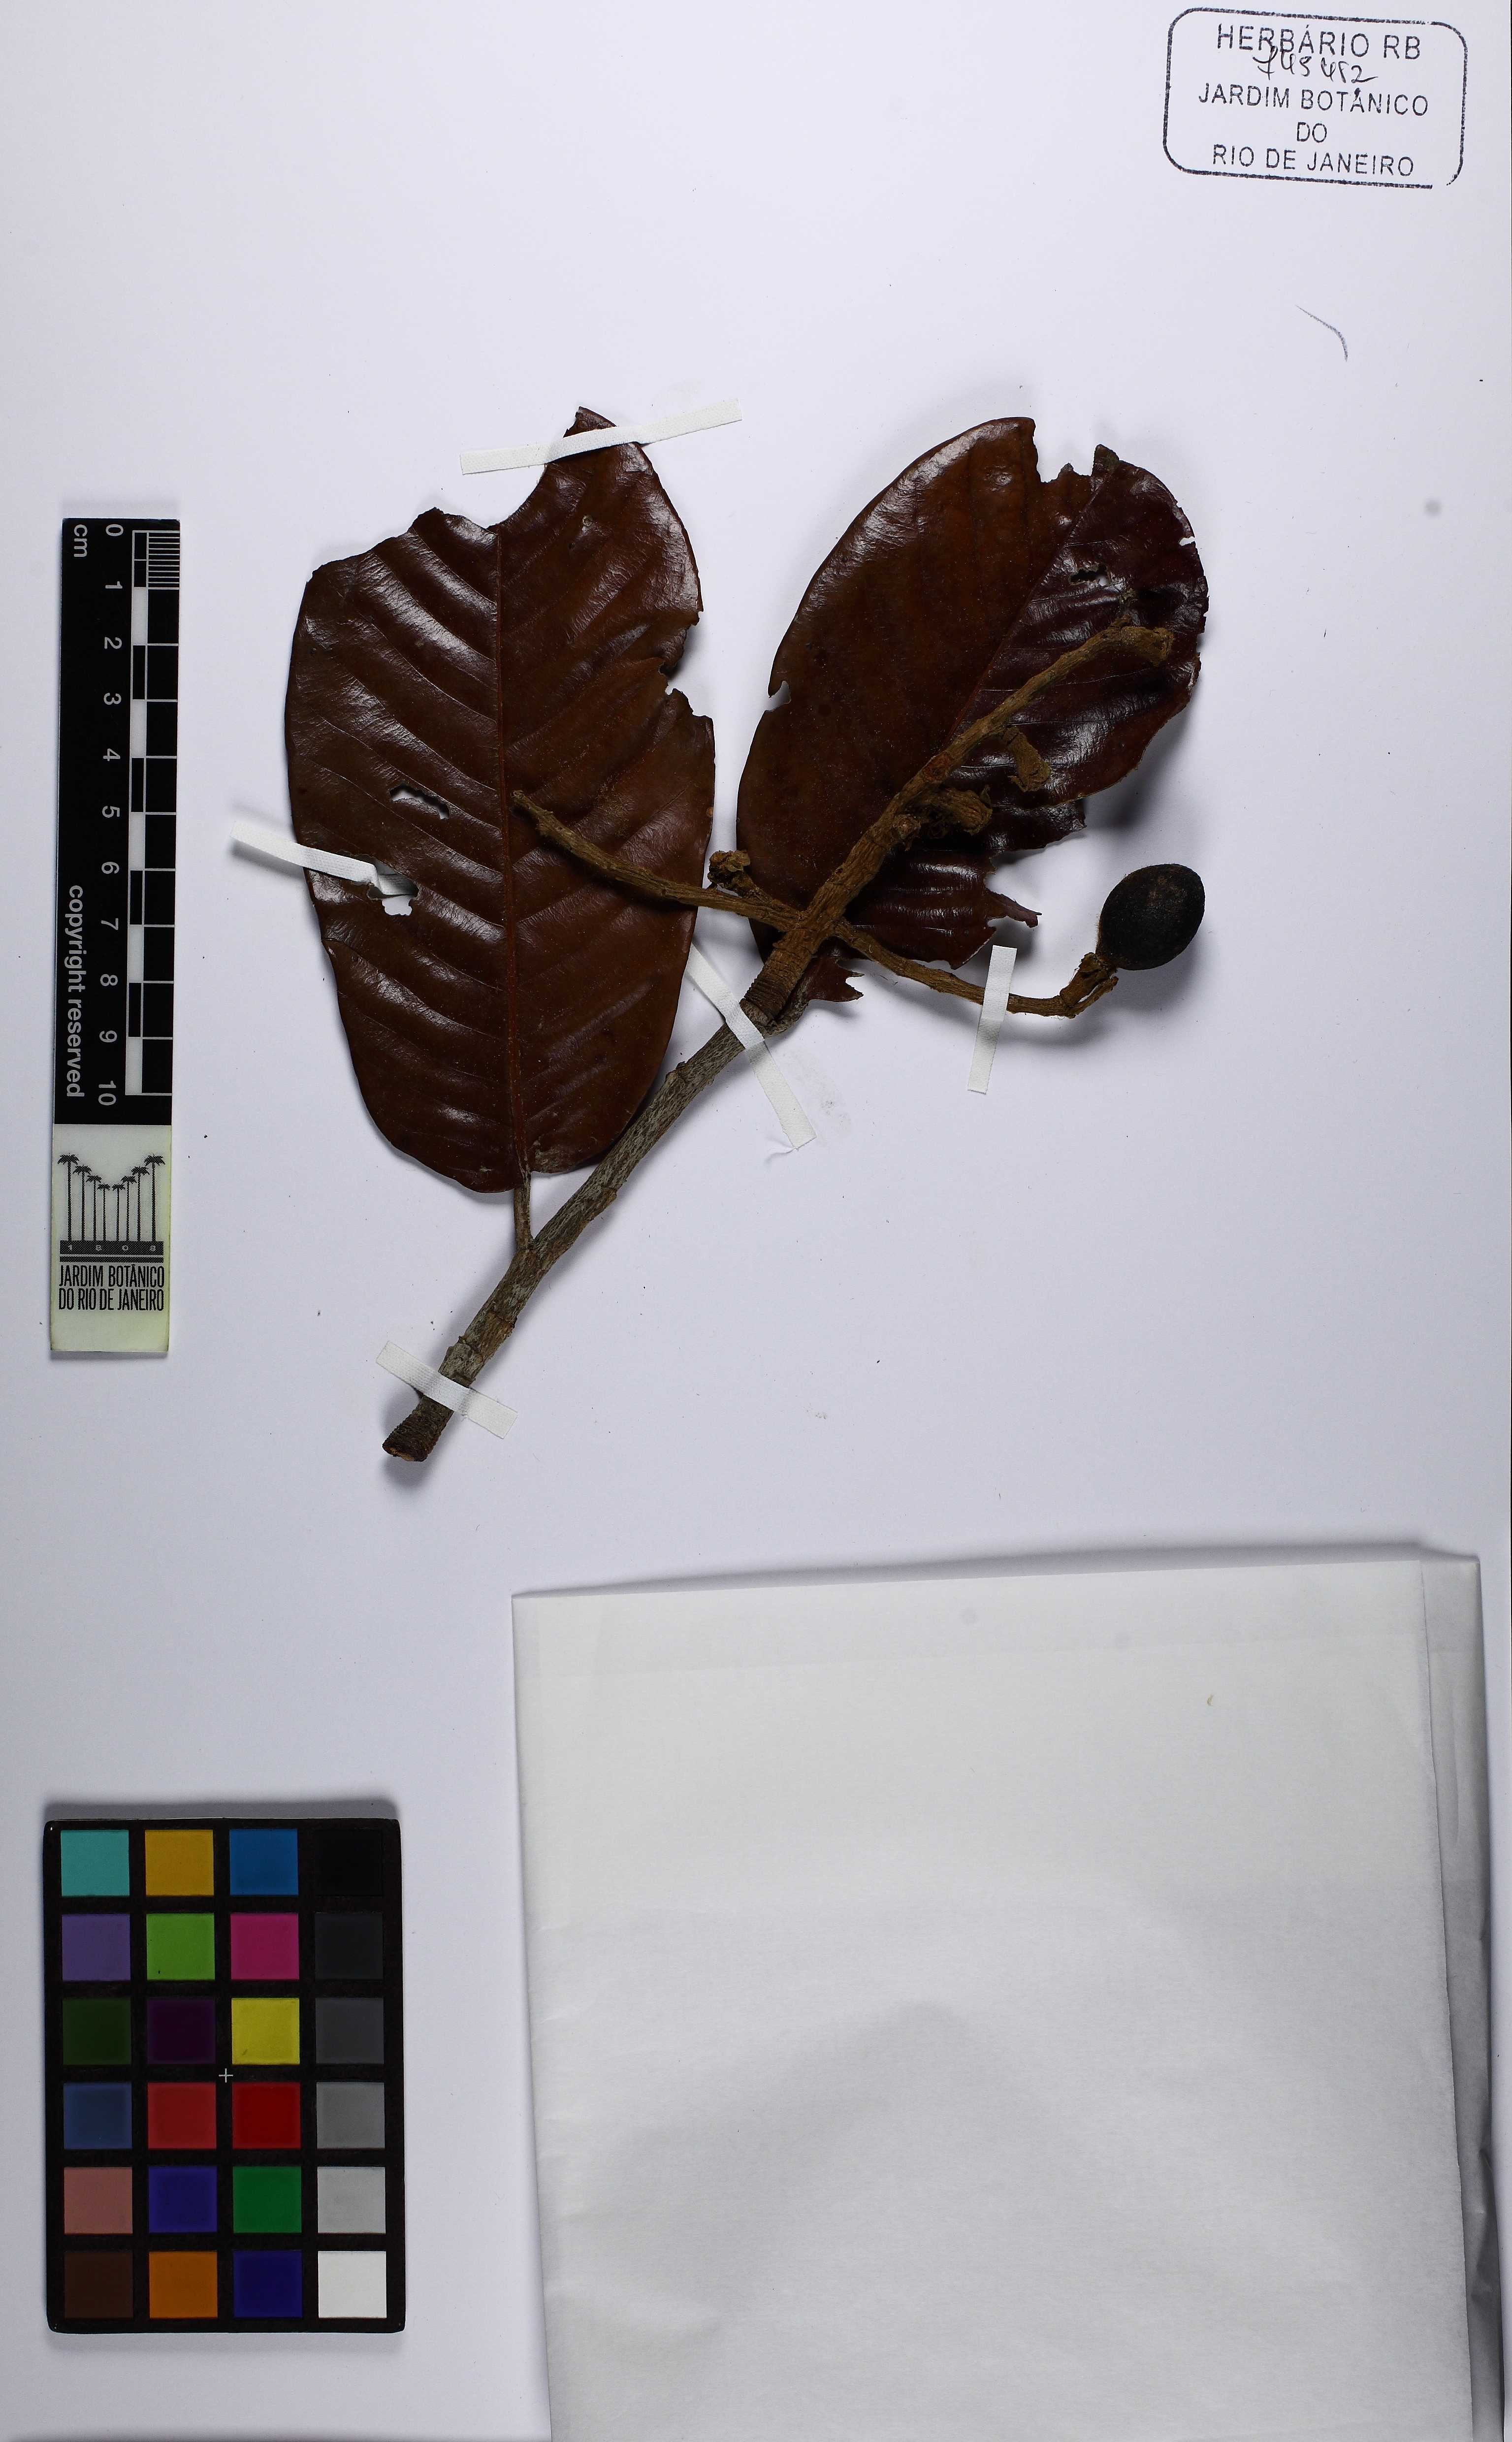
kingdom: Plantae
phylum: Tracheophyta
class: Magnoliopsida
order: Malpighiales
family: Chrysobalanaceae
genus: Couepia
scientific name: Couepia schottii
